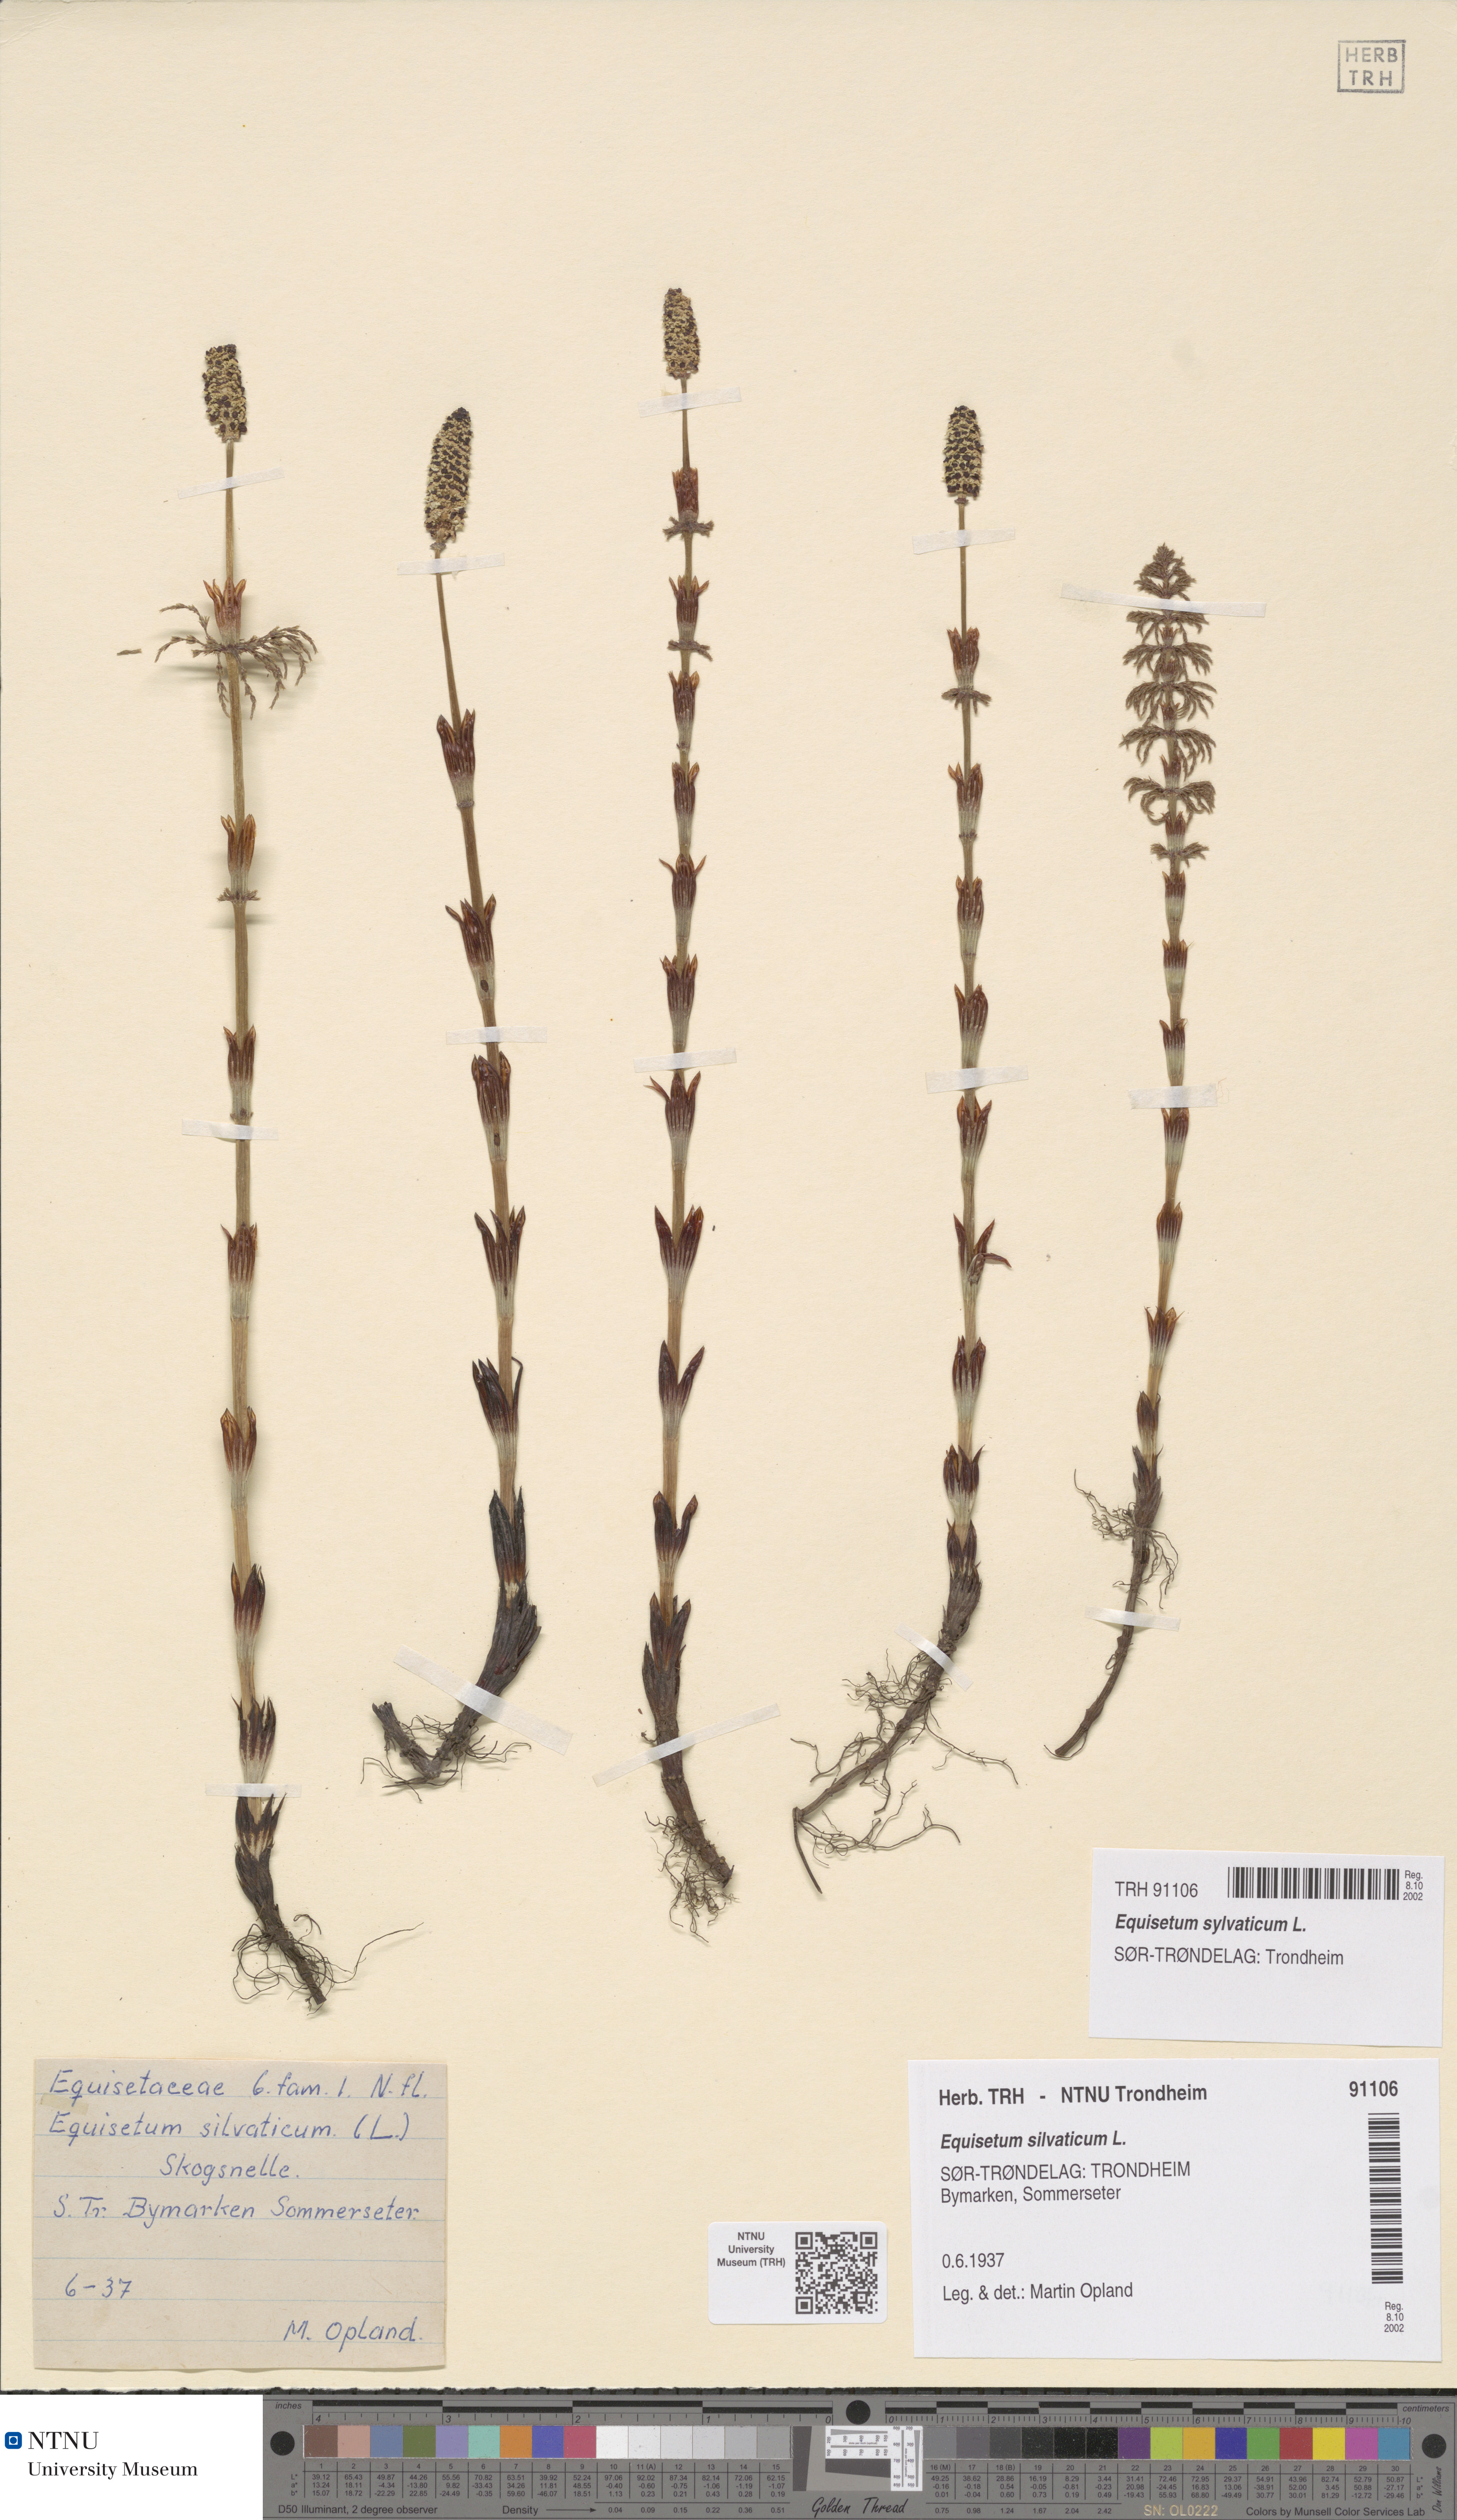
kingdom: Plantae
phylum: Tracheophyta
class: Polypodiopsida
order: Equisetales
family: Equisetaceae
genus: Equisetum
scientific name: Equisetum sylvaticum
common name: Wood horsetail
